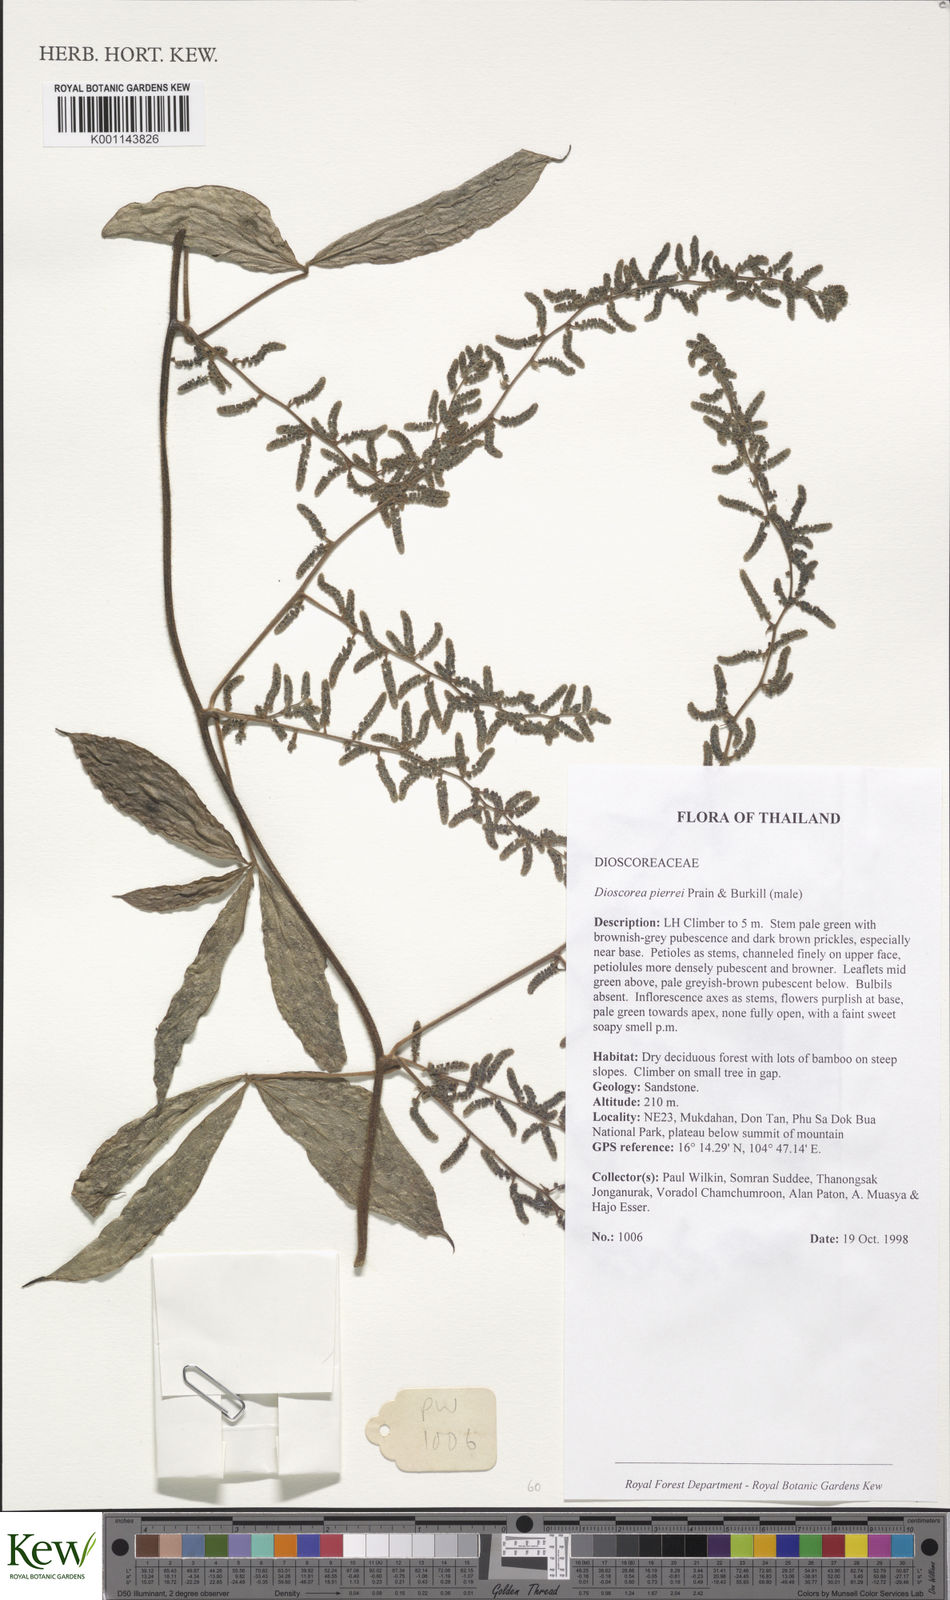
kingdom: Plantae
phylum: Tracheophyta
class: Liliopsida
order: Dioscoreales
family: Dioscoreaceae
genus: Dioscorea
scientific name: Dioscorea
